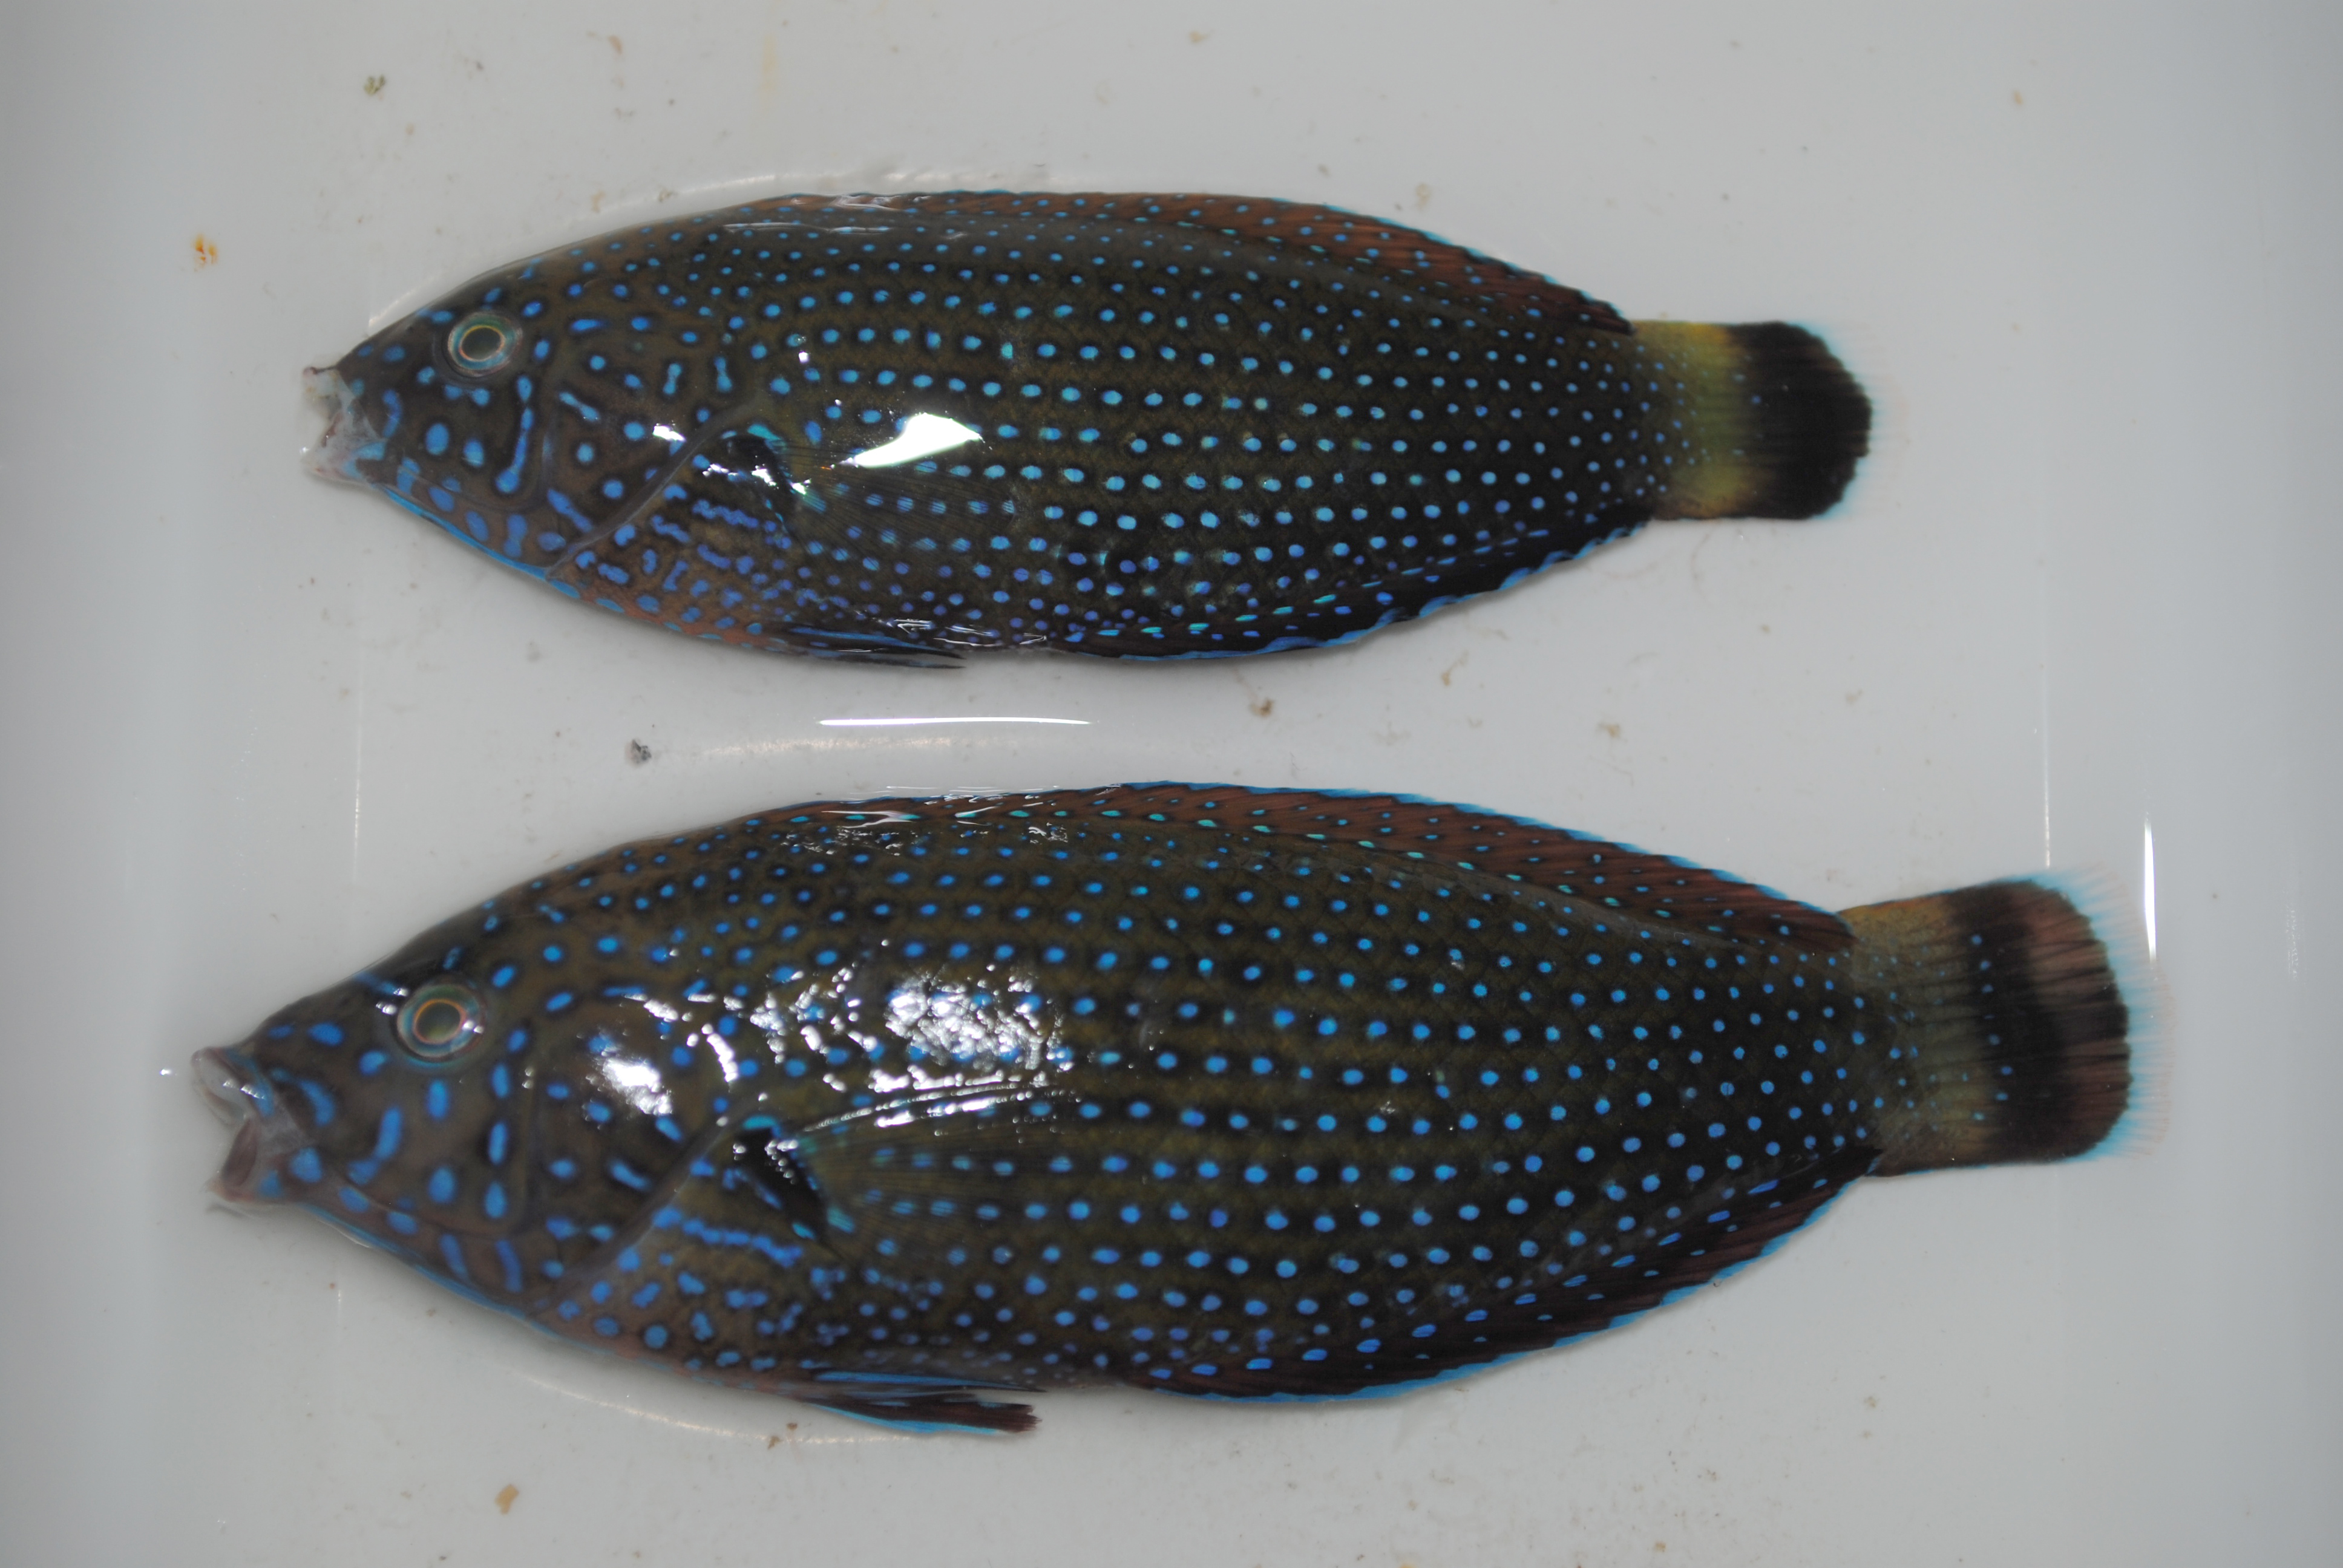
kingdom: Animalia
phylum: Chordata
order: Perciformes
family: Labridae
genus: Anampses
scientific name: Anampses caeruleopunctatus
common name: Bluespotted wrasse
